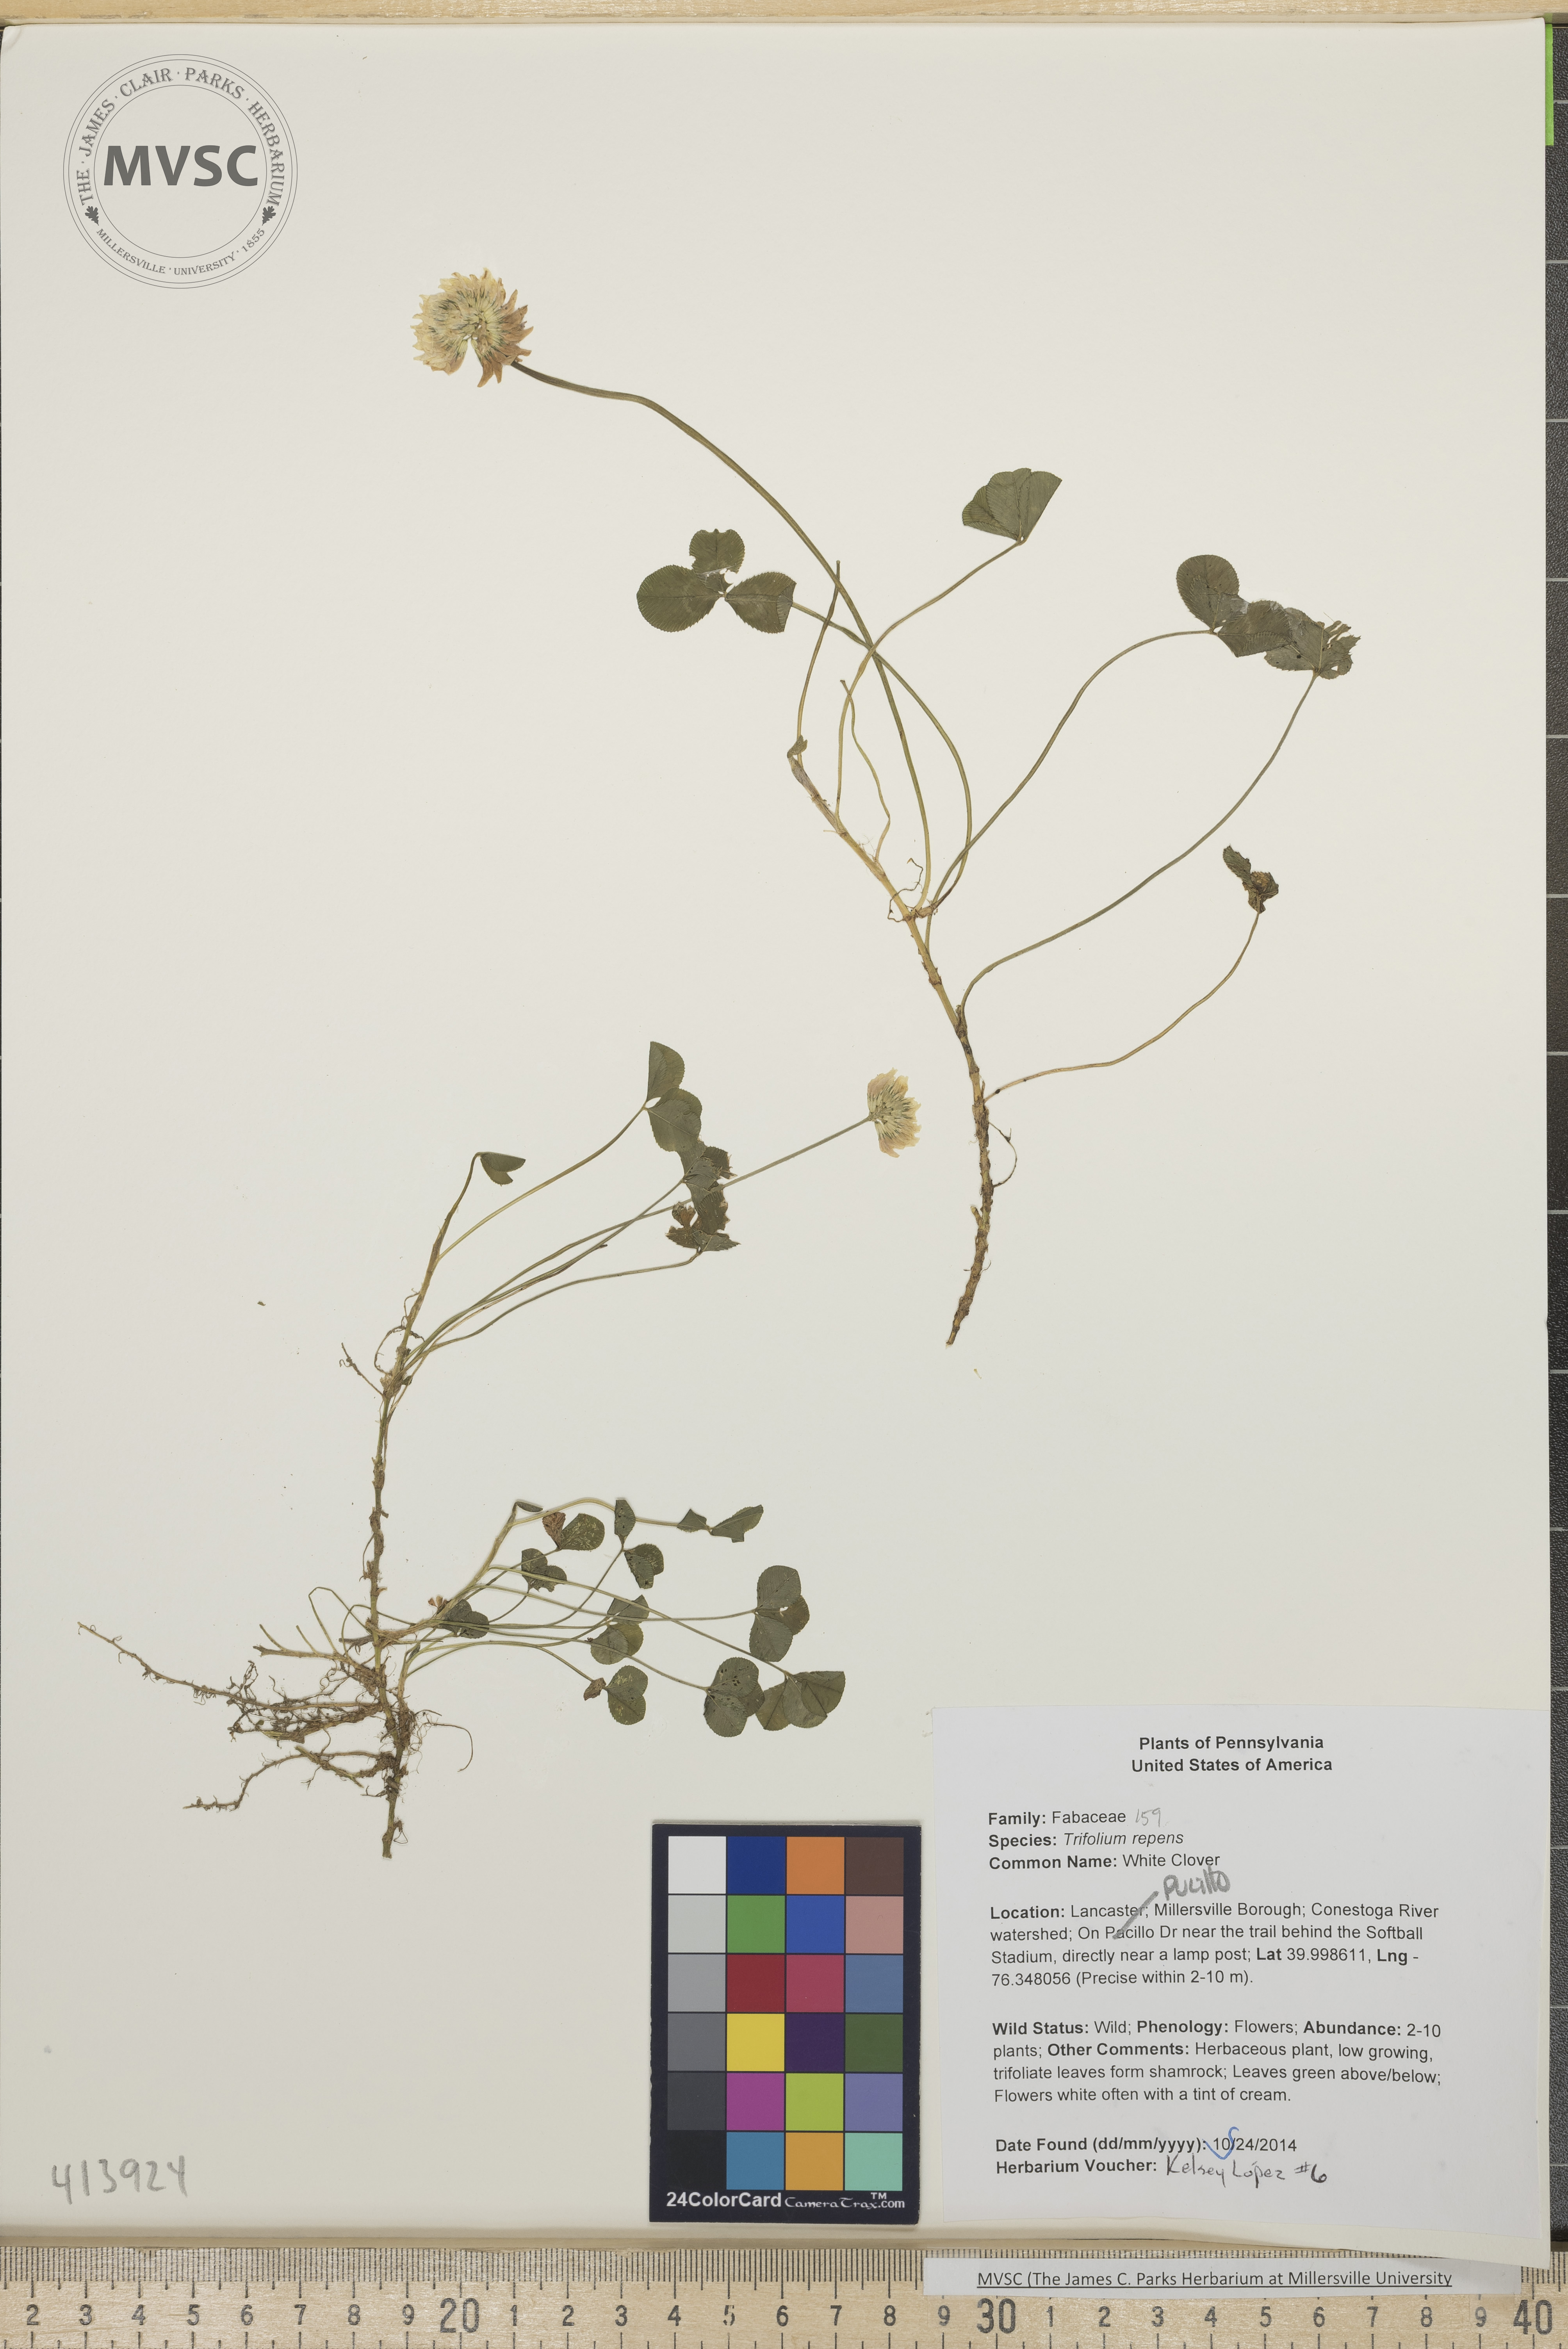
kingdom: Plantae
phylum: Tracheophyta
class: Magnoliopsida
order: Fabales
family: Fabaceae
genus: Trifolium
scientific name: Trifolium repens
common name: White clover
